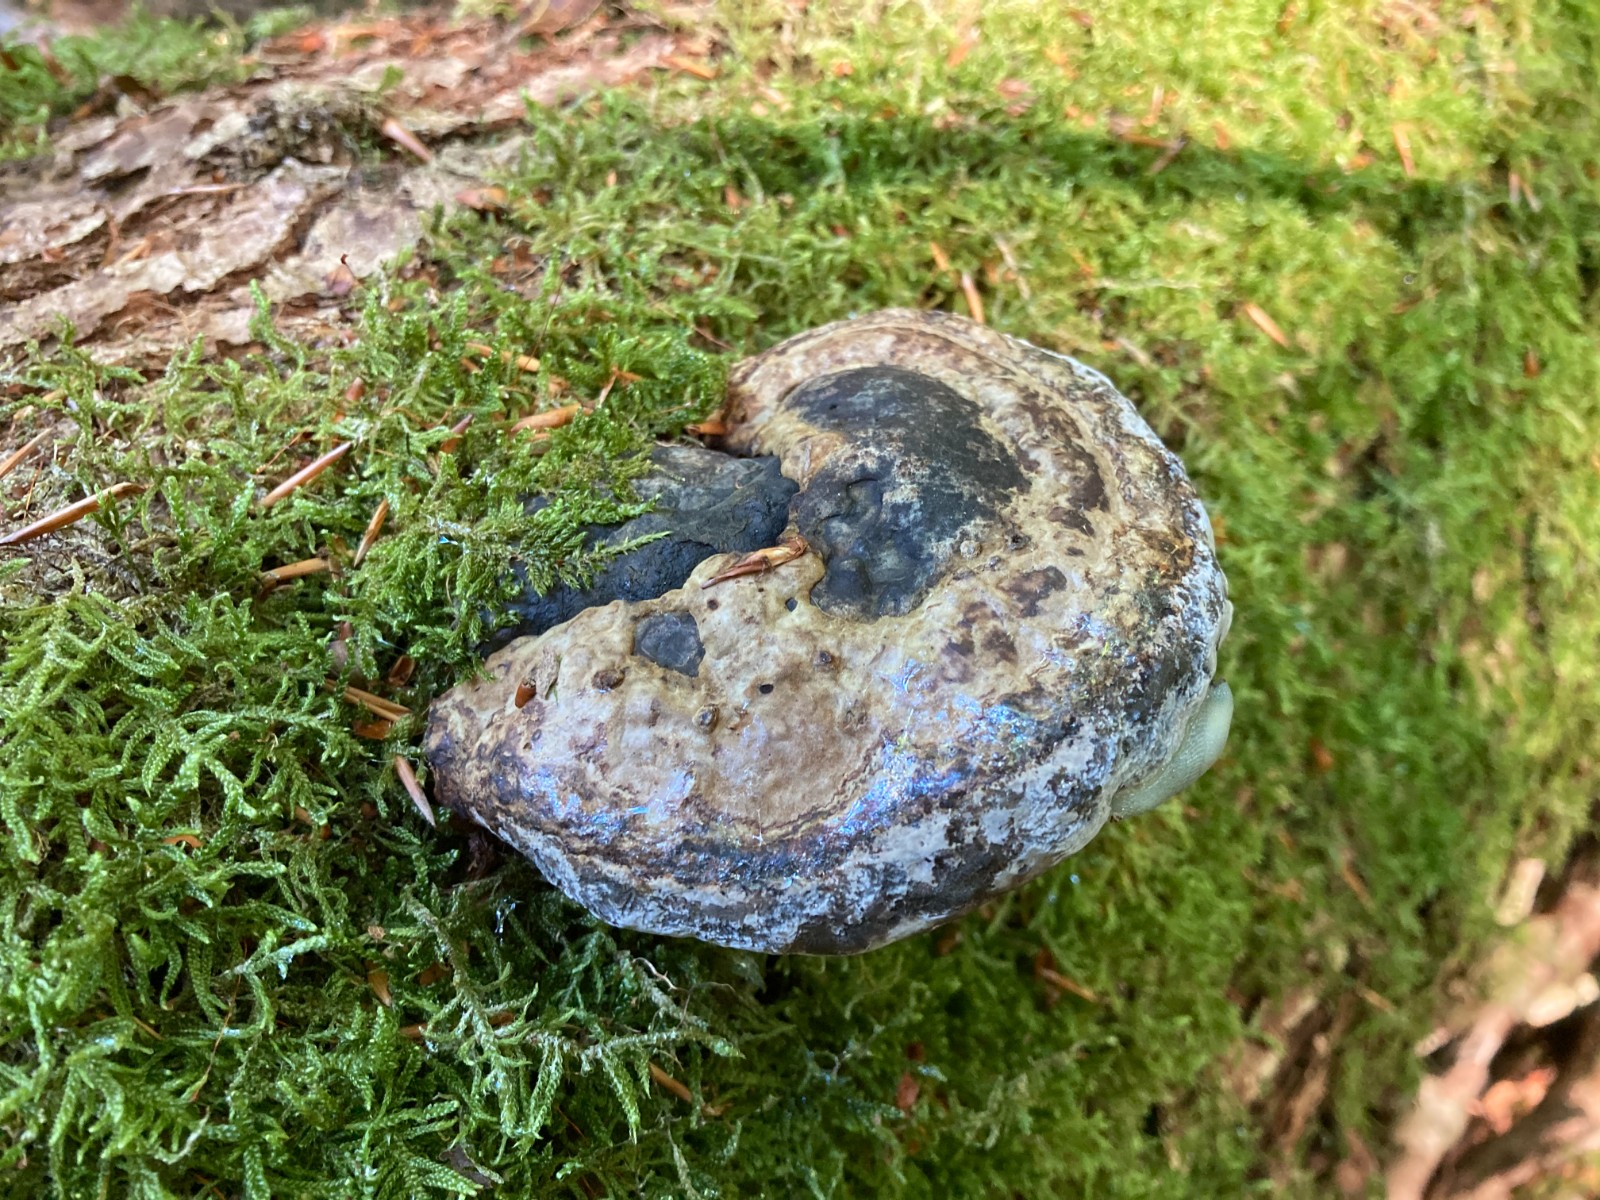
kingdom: Fungi
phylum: Basidiomycota
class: Agaricomycetes
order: Polyporales
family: Polyporaceae
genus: Fomes
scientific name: Fomes fomentarius
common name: tøndersvamp
